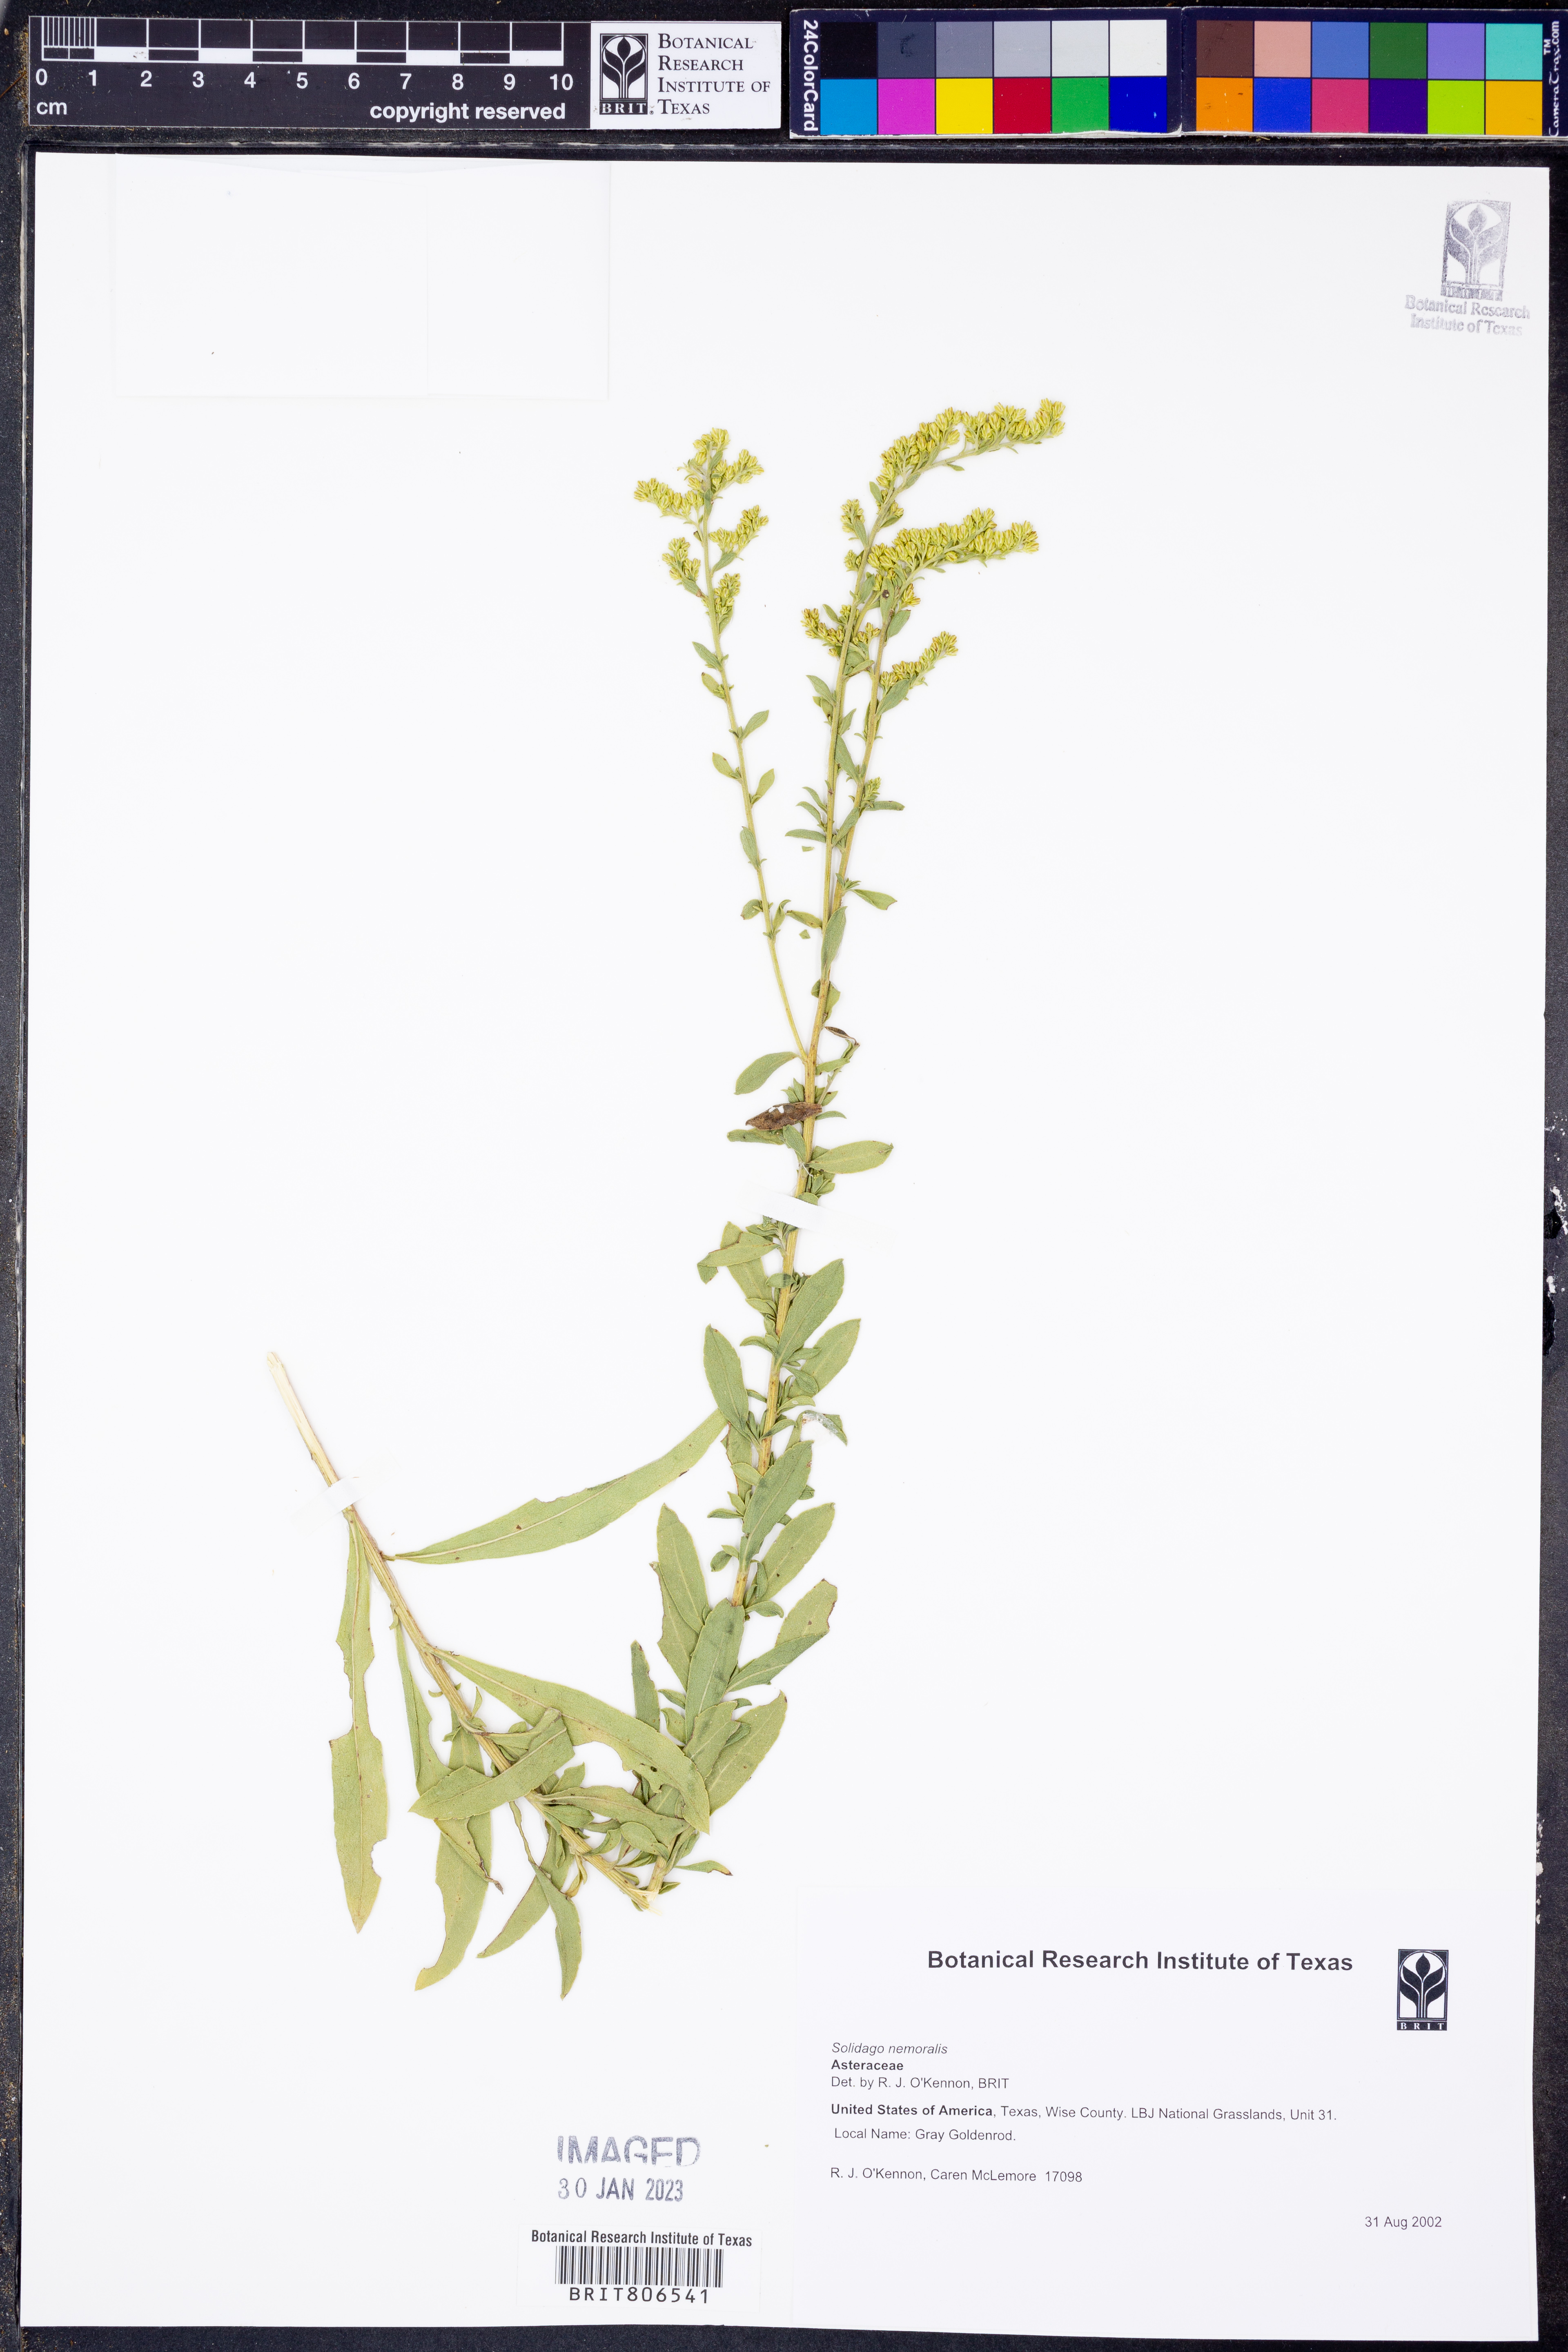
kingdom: Plantae
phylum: Tracheophyta
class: Magnoliopsida
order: Asterales
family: Asteraceae
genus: Solidago
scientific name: Solidago nemoralis
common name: Grey goldenrod
